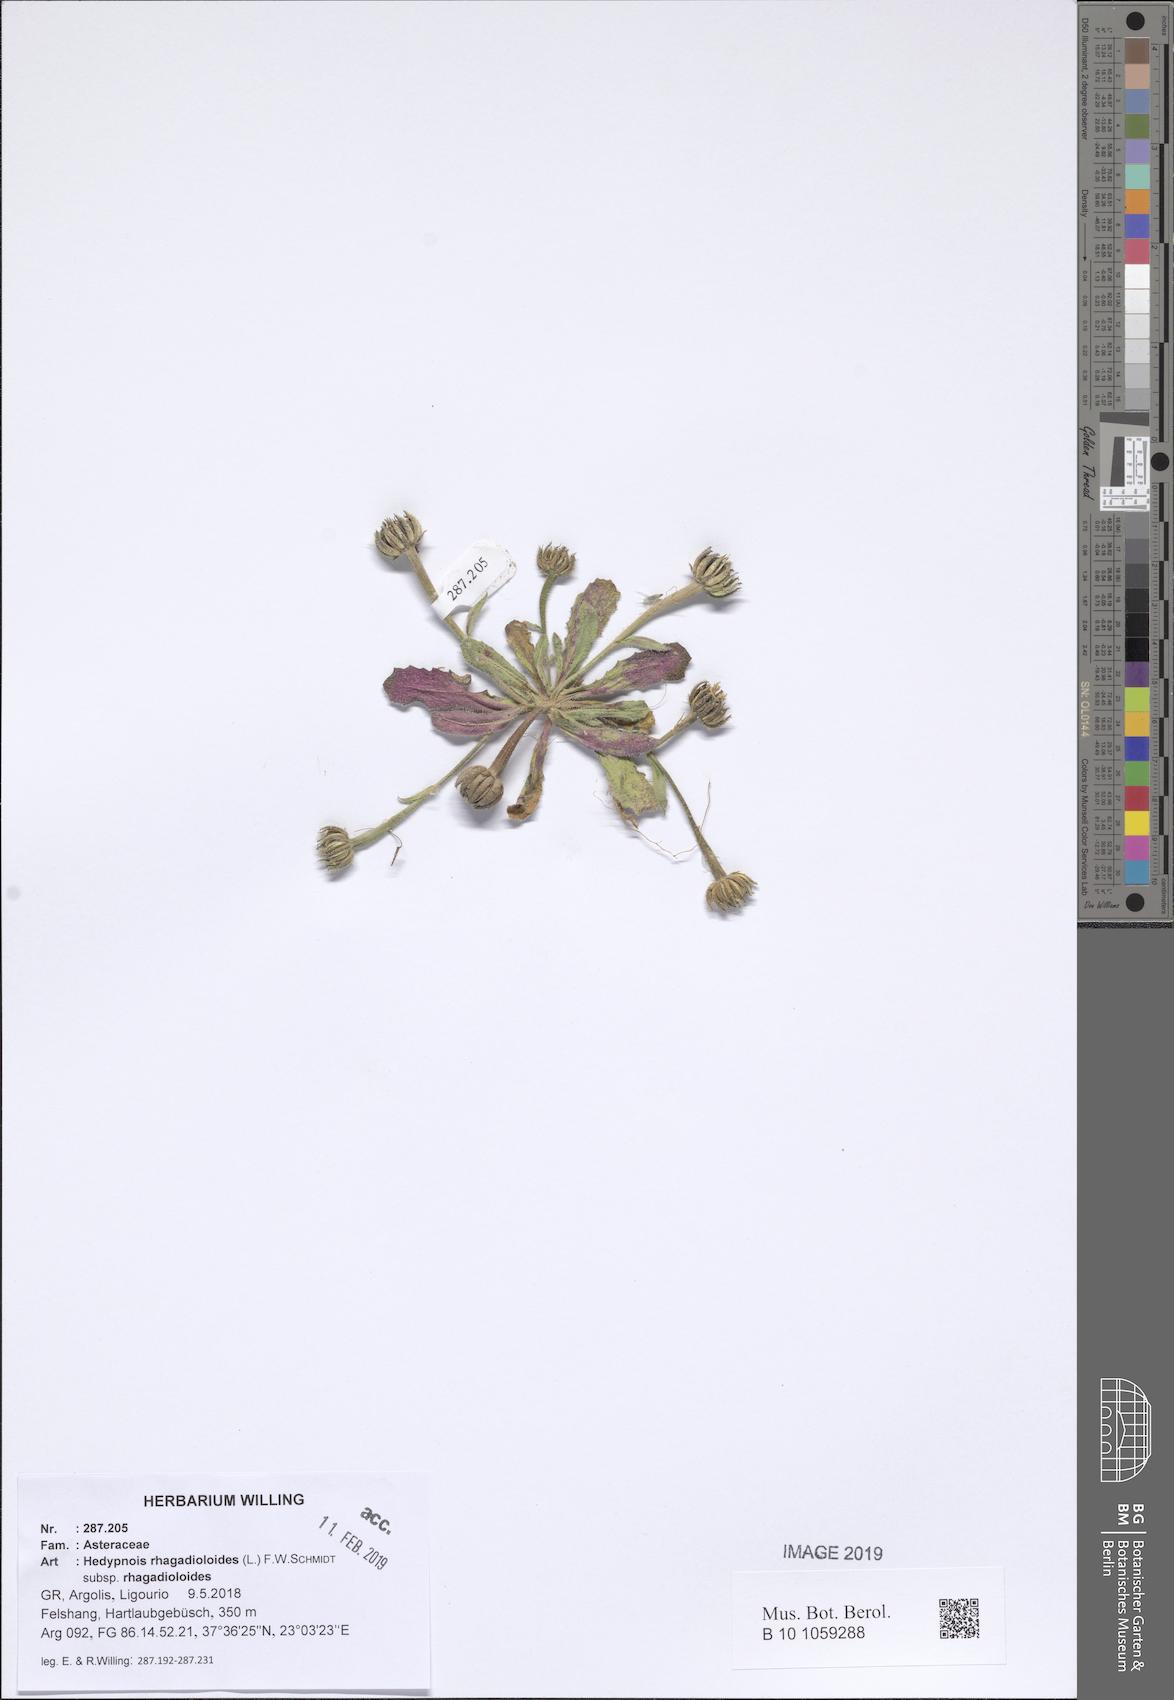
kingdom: Plantae
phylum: Tracheophyta
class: Magnoliopsida
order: Asterales
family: Asteraceae
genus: Hedypnois
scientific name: Hedypnois rhagadioloides
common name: Cretan weed
